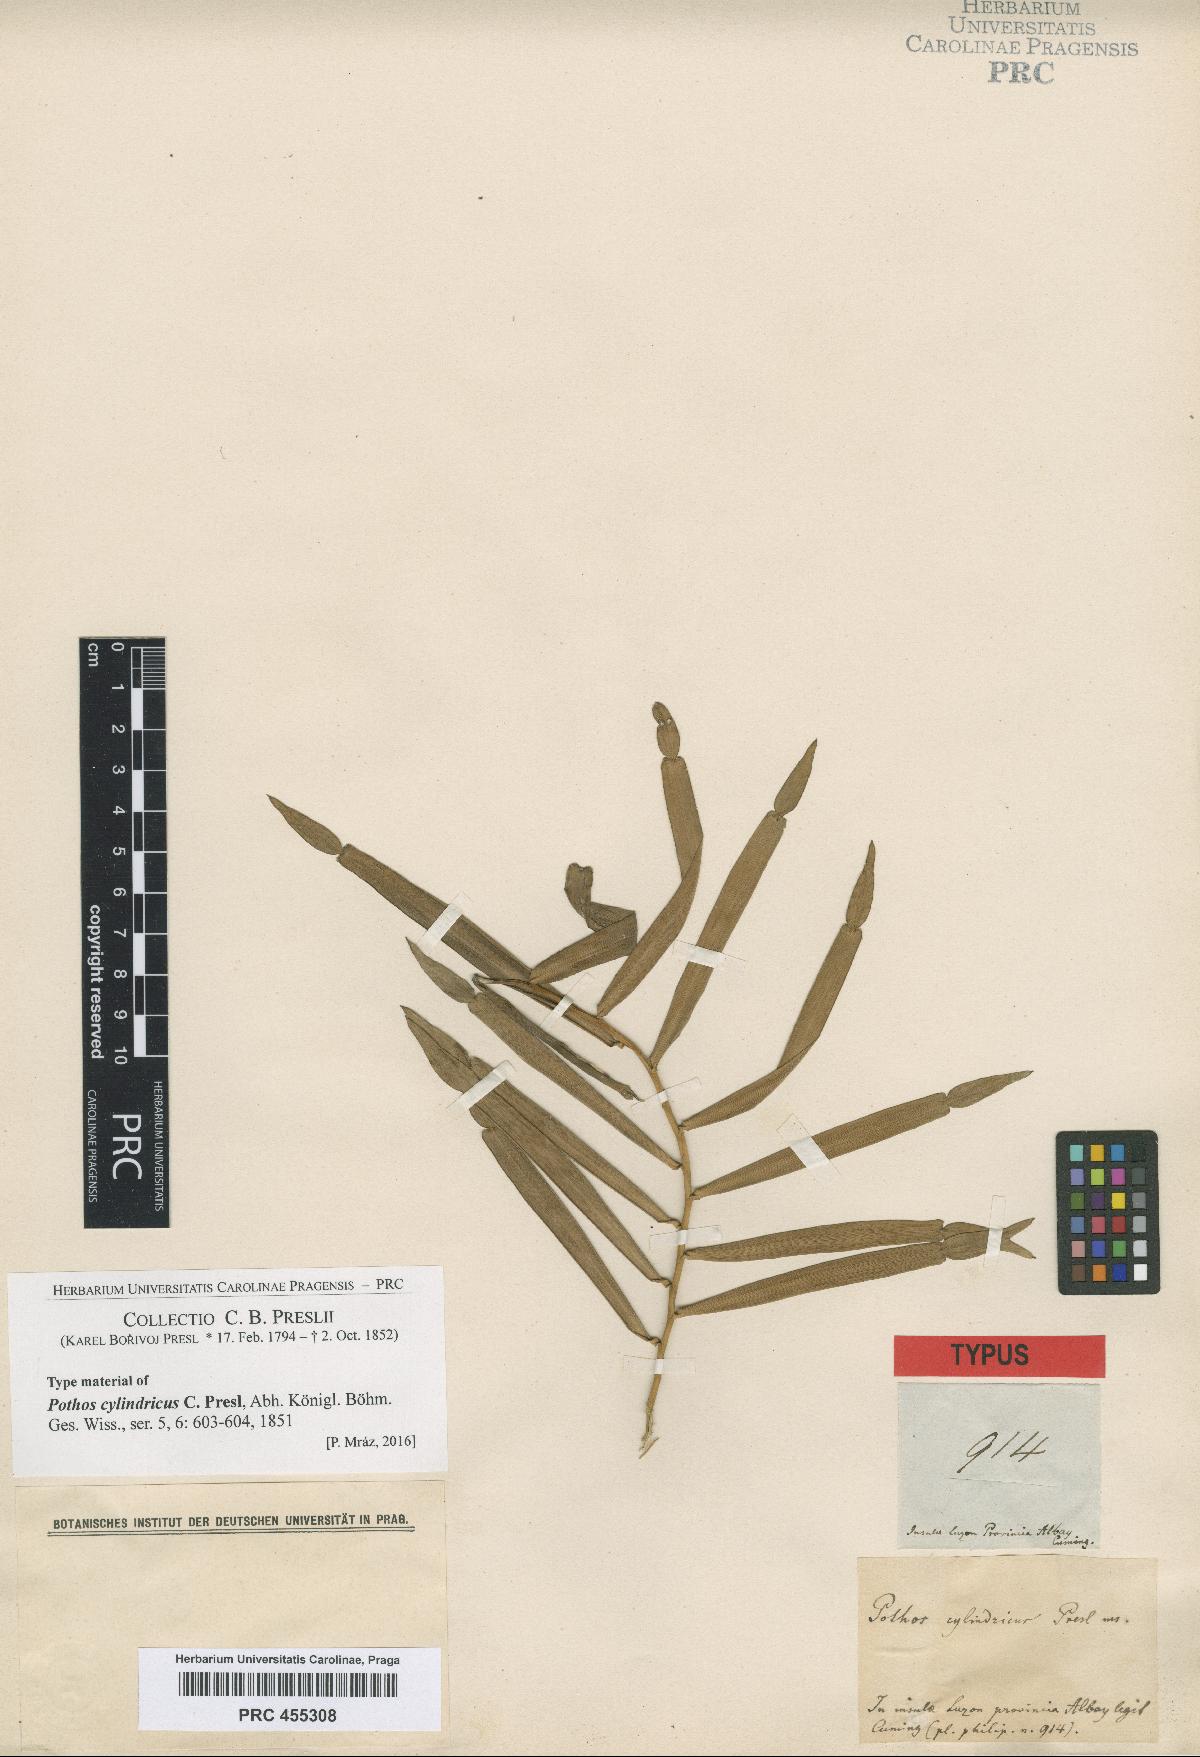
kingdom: Plantae
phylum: Tracheophyta
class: Liliopsida
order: Alismatales
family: Araceae
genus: Pothos
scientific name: Pothos cylindricus
